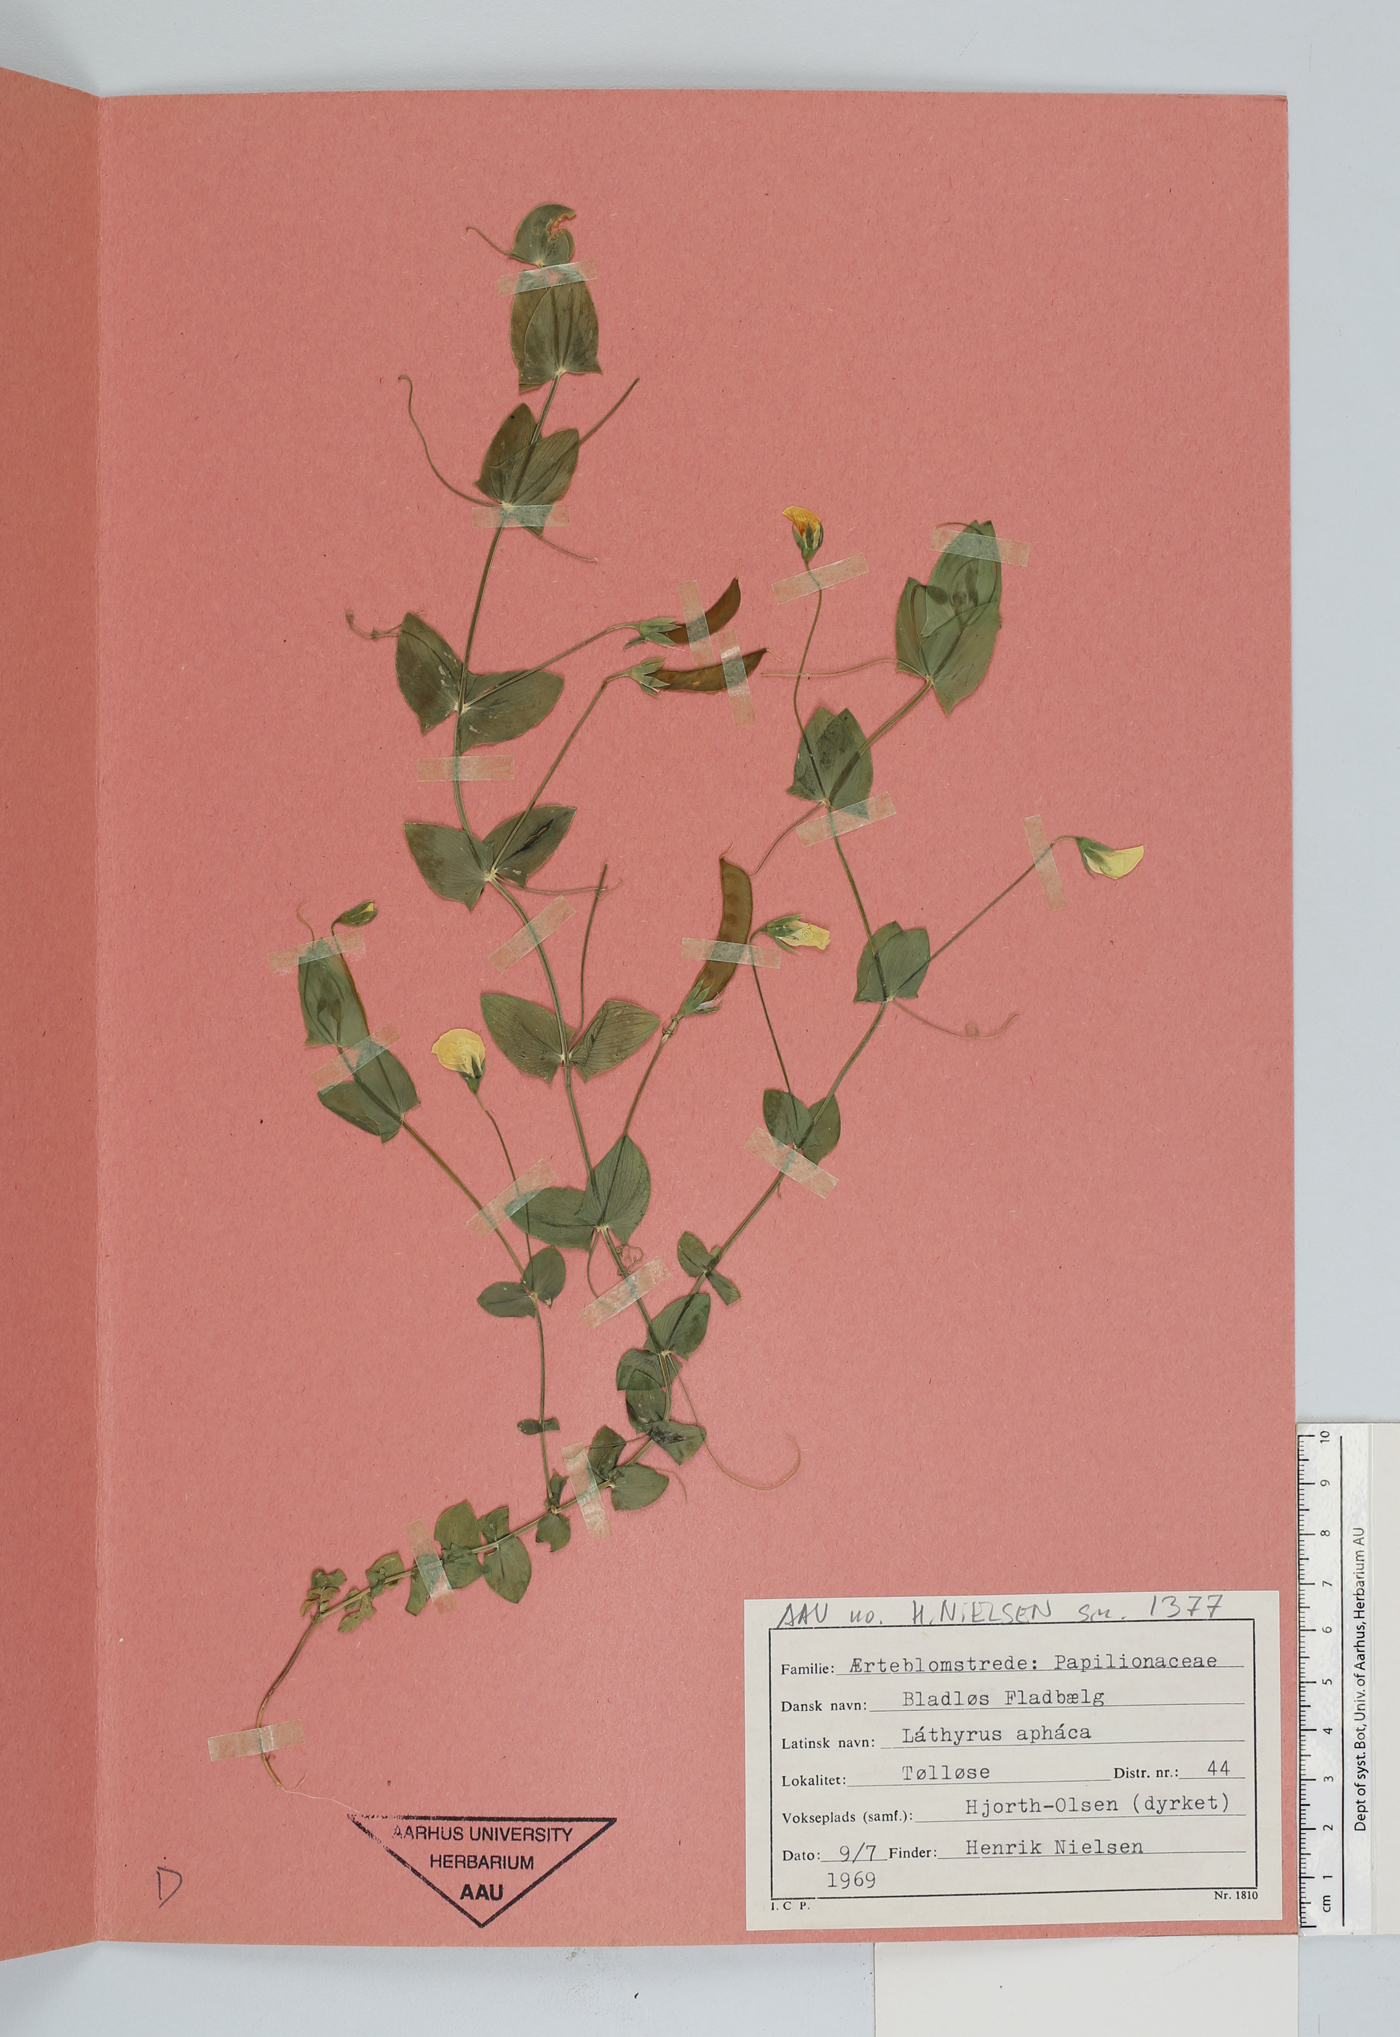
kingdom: Plantae
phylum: Tracheophyta
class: Magnoliopsida
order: Fabales
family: Fabaceae
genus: Lathyrus
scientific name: Lathyrus aphaca
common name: Yellow vetchling
